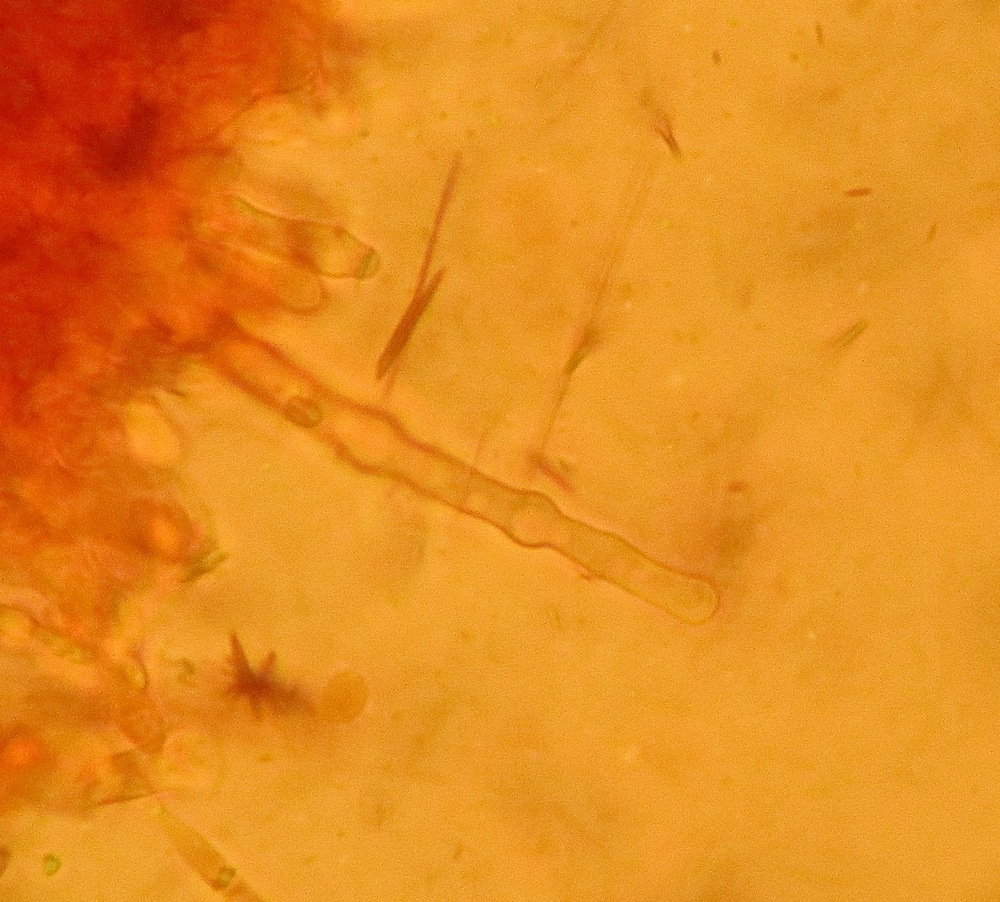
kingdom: Fungi
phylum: Basidiomycota
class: Agaricomycetes
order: Hymenochaetales
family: Hyphodontiaceae
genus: Hyphodontia
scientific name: Hyphodontia alutaria
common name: flaskerenser-nålehinde
